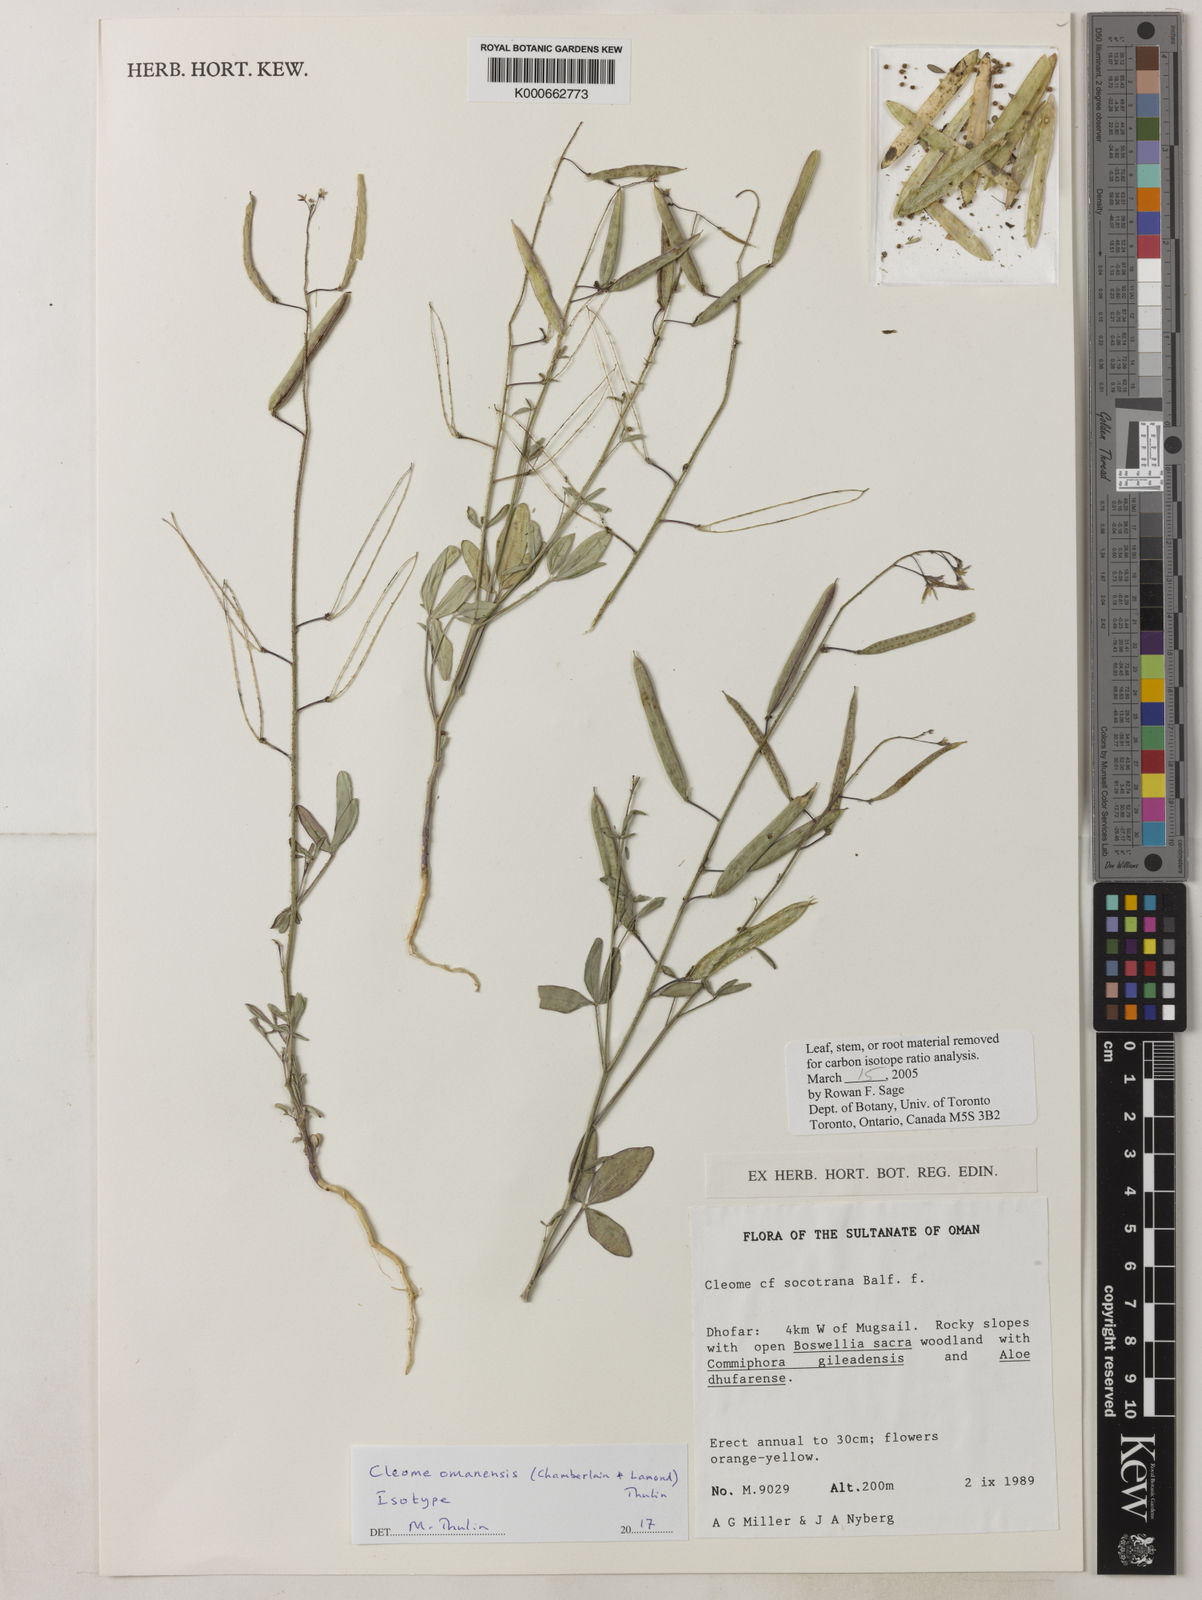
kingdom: Plantae
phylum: Tracheophyta
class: Magnoliopsida
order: Brassicales
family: Cleomaceae
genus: Cleome
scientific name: Cleome omanensis
